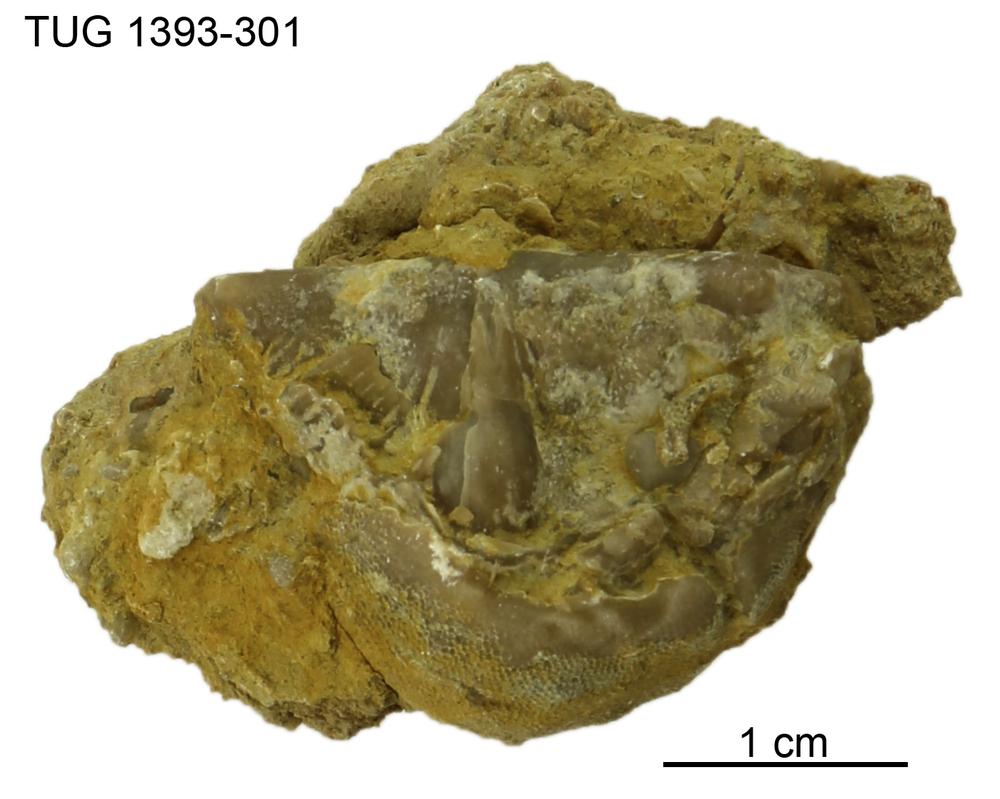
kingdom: Animalia
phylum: Bryozoa
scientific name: Bryozoa
